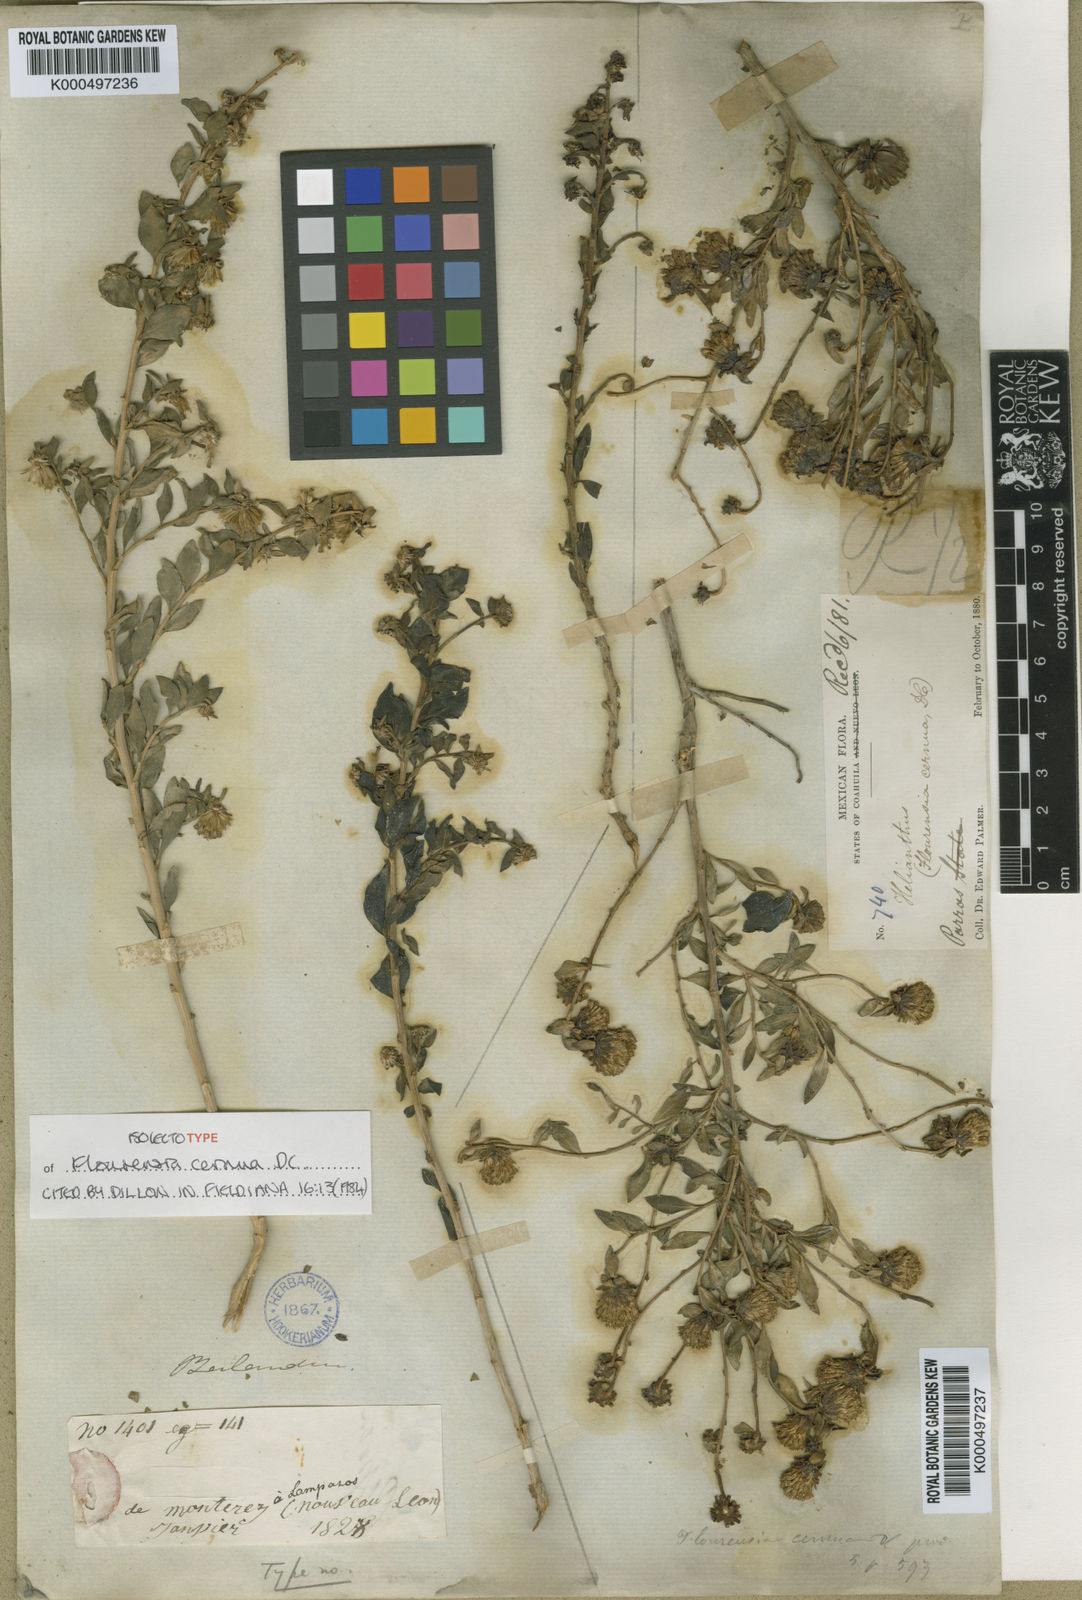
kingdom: Plantae
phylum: Tracheophyta
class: Magnoliopsida
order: Asterales
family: Asteraceae
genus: Flourensia
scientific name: Flourensia cernua
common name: Varnishbush
